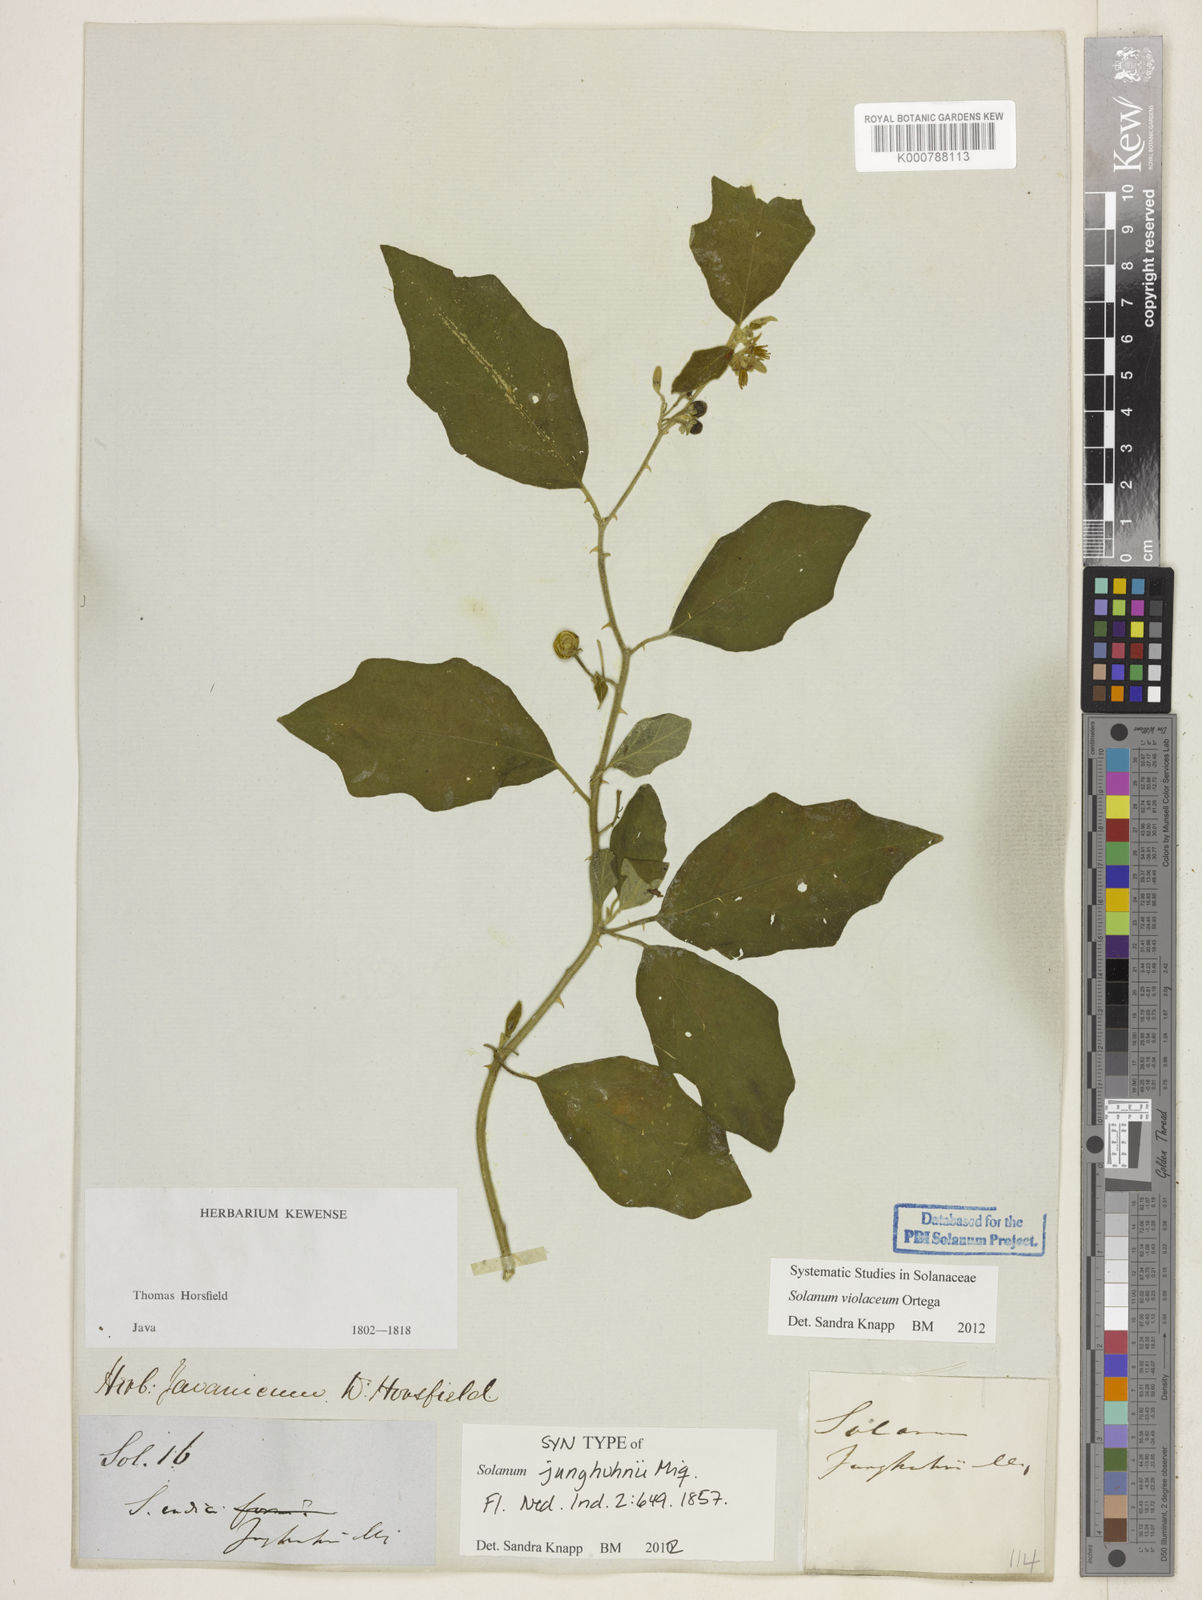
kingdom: Plantae
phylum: Tracheophyta
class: Magnoliopsida
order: Solanales
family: Solanaceae
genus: Solanum
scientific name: Solanum violaceum
